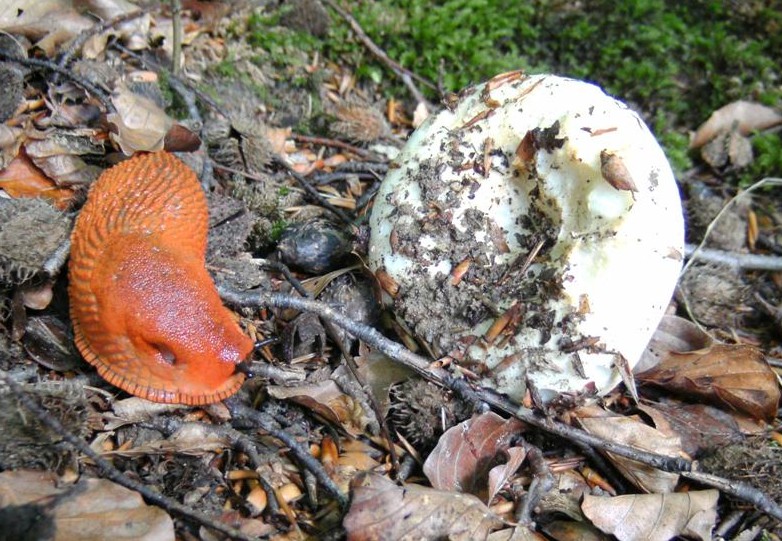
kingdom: Fungi
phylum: Basidiomycota
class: Agaricomycetes
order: Russulales
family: Russulaceae
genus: Russula
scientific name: Russula chloroides
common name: grønhalset tragt-skørhat
